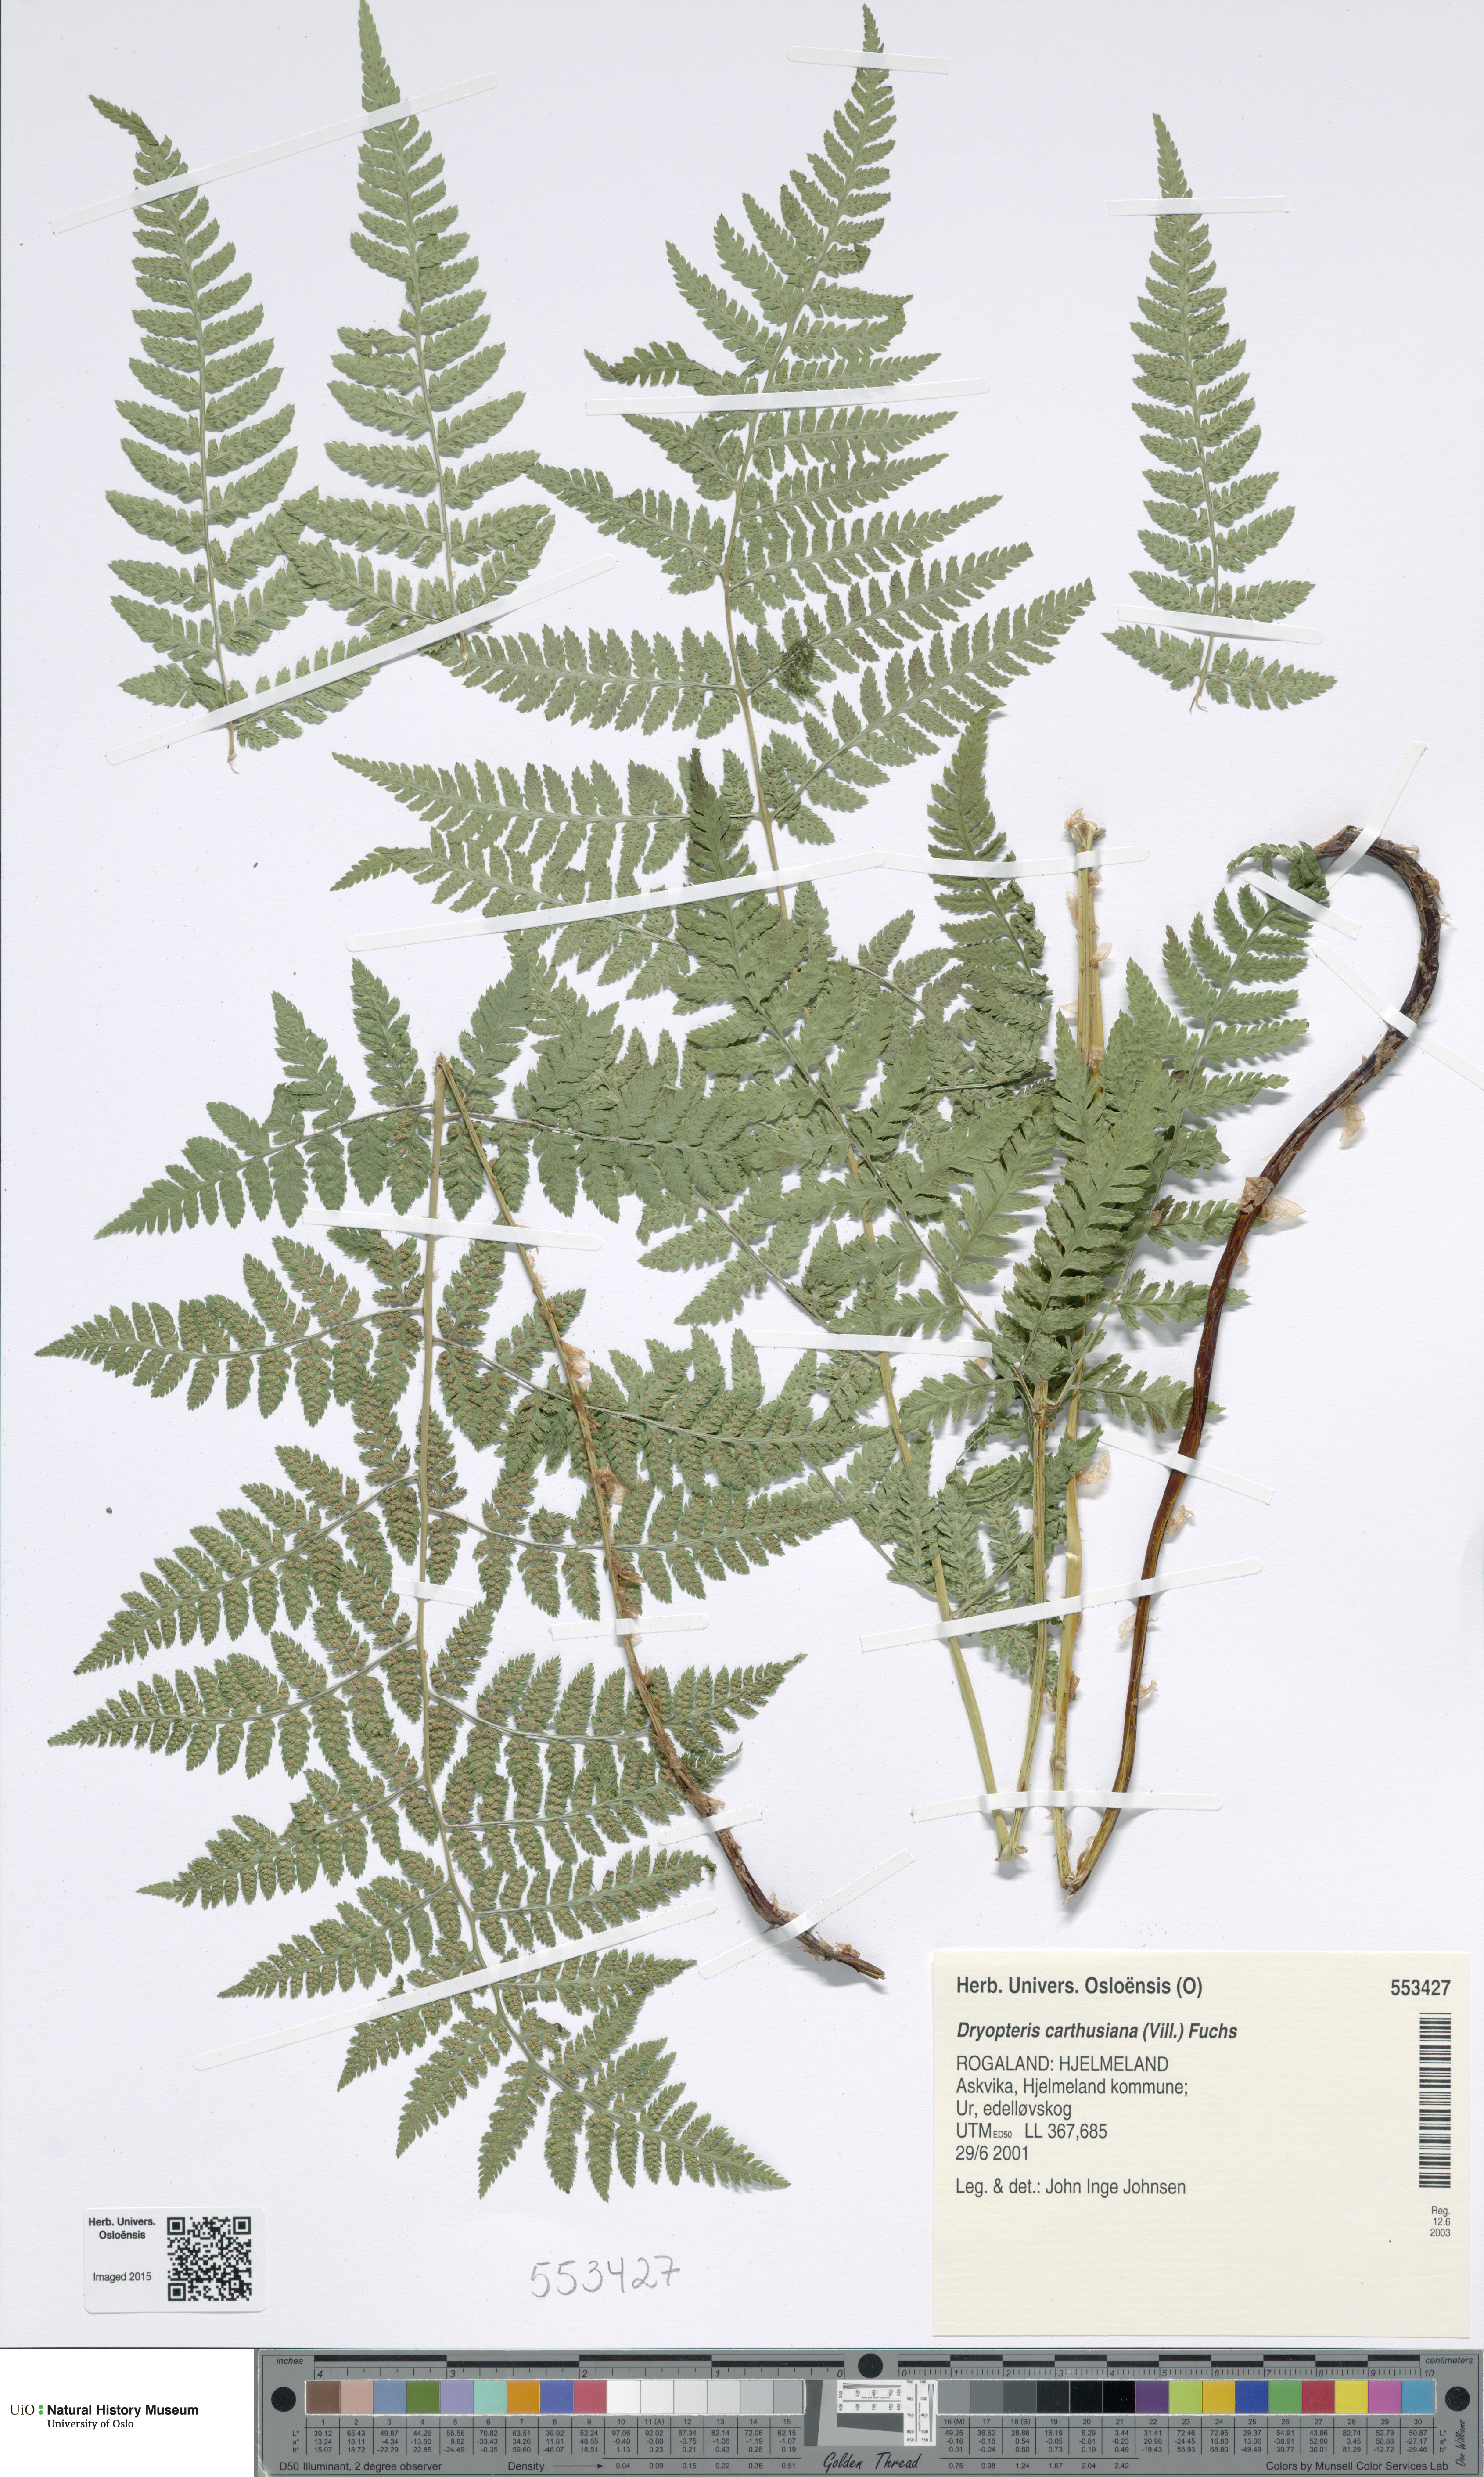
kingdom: Plantae
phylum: Tracheophyta
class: Polypodiopsida
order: Polypodiales
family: Dryopteridaceae
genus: Dryopteris
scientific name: Dryopteris carthusiana
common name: Narrow buckler-fern
